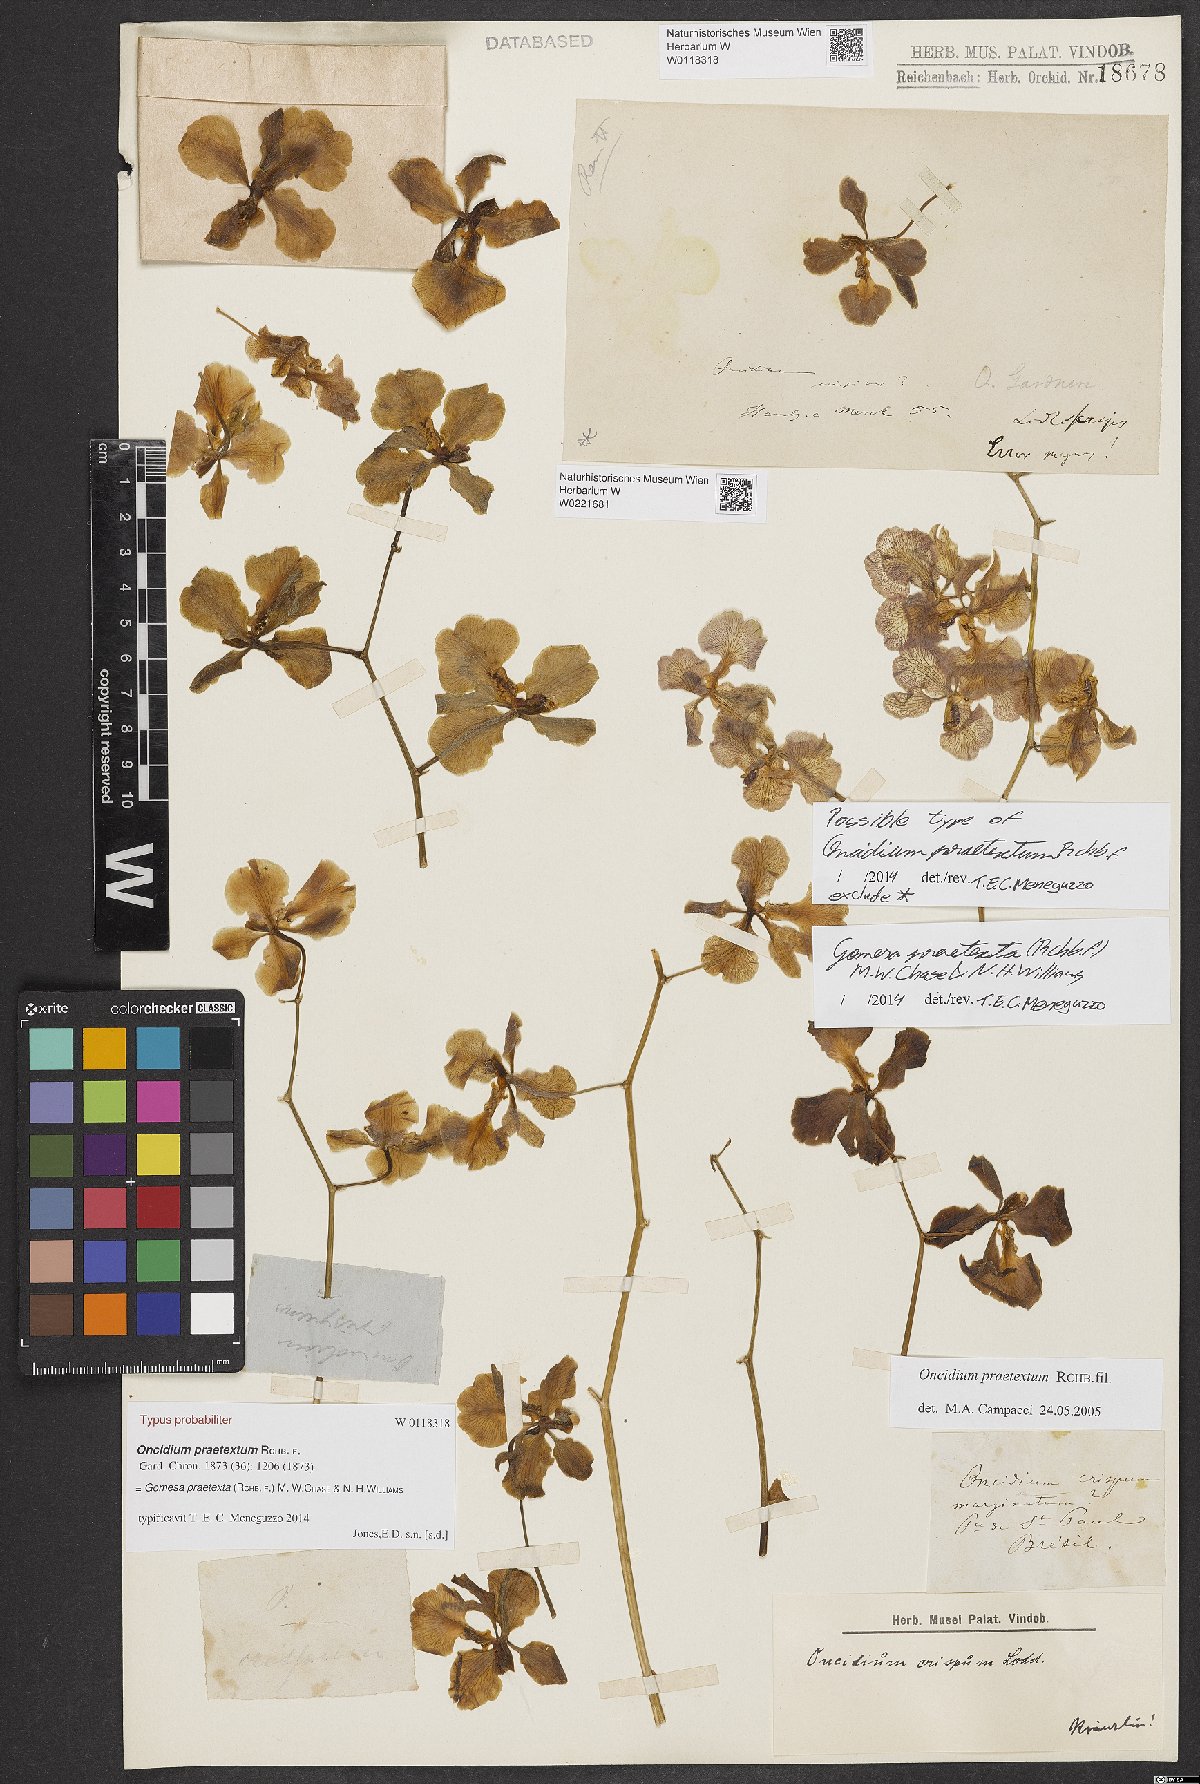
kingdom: Plantae
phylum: Tracheophyta
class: Liliopsida
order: Asparagales
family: Orchidaceae
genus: Gomesa
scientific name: Gomesa praetexta
